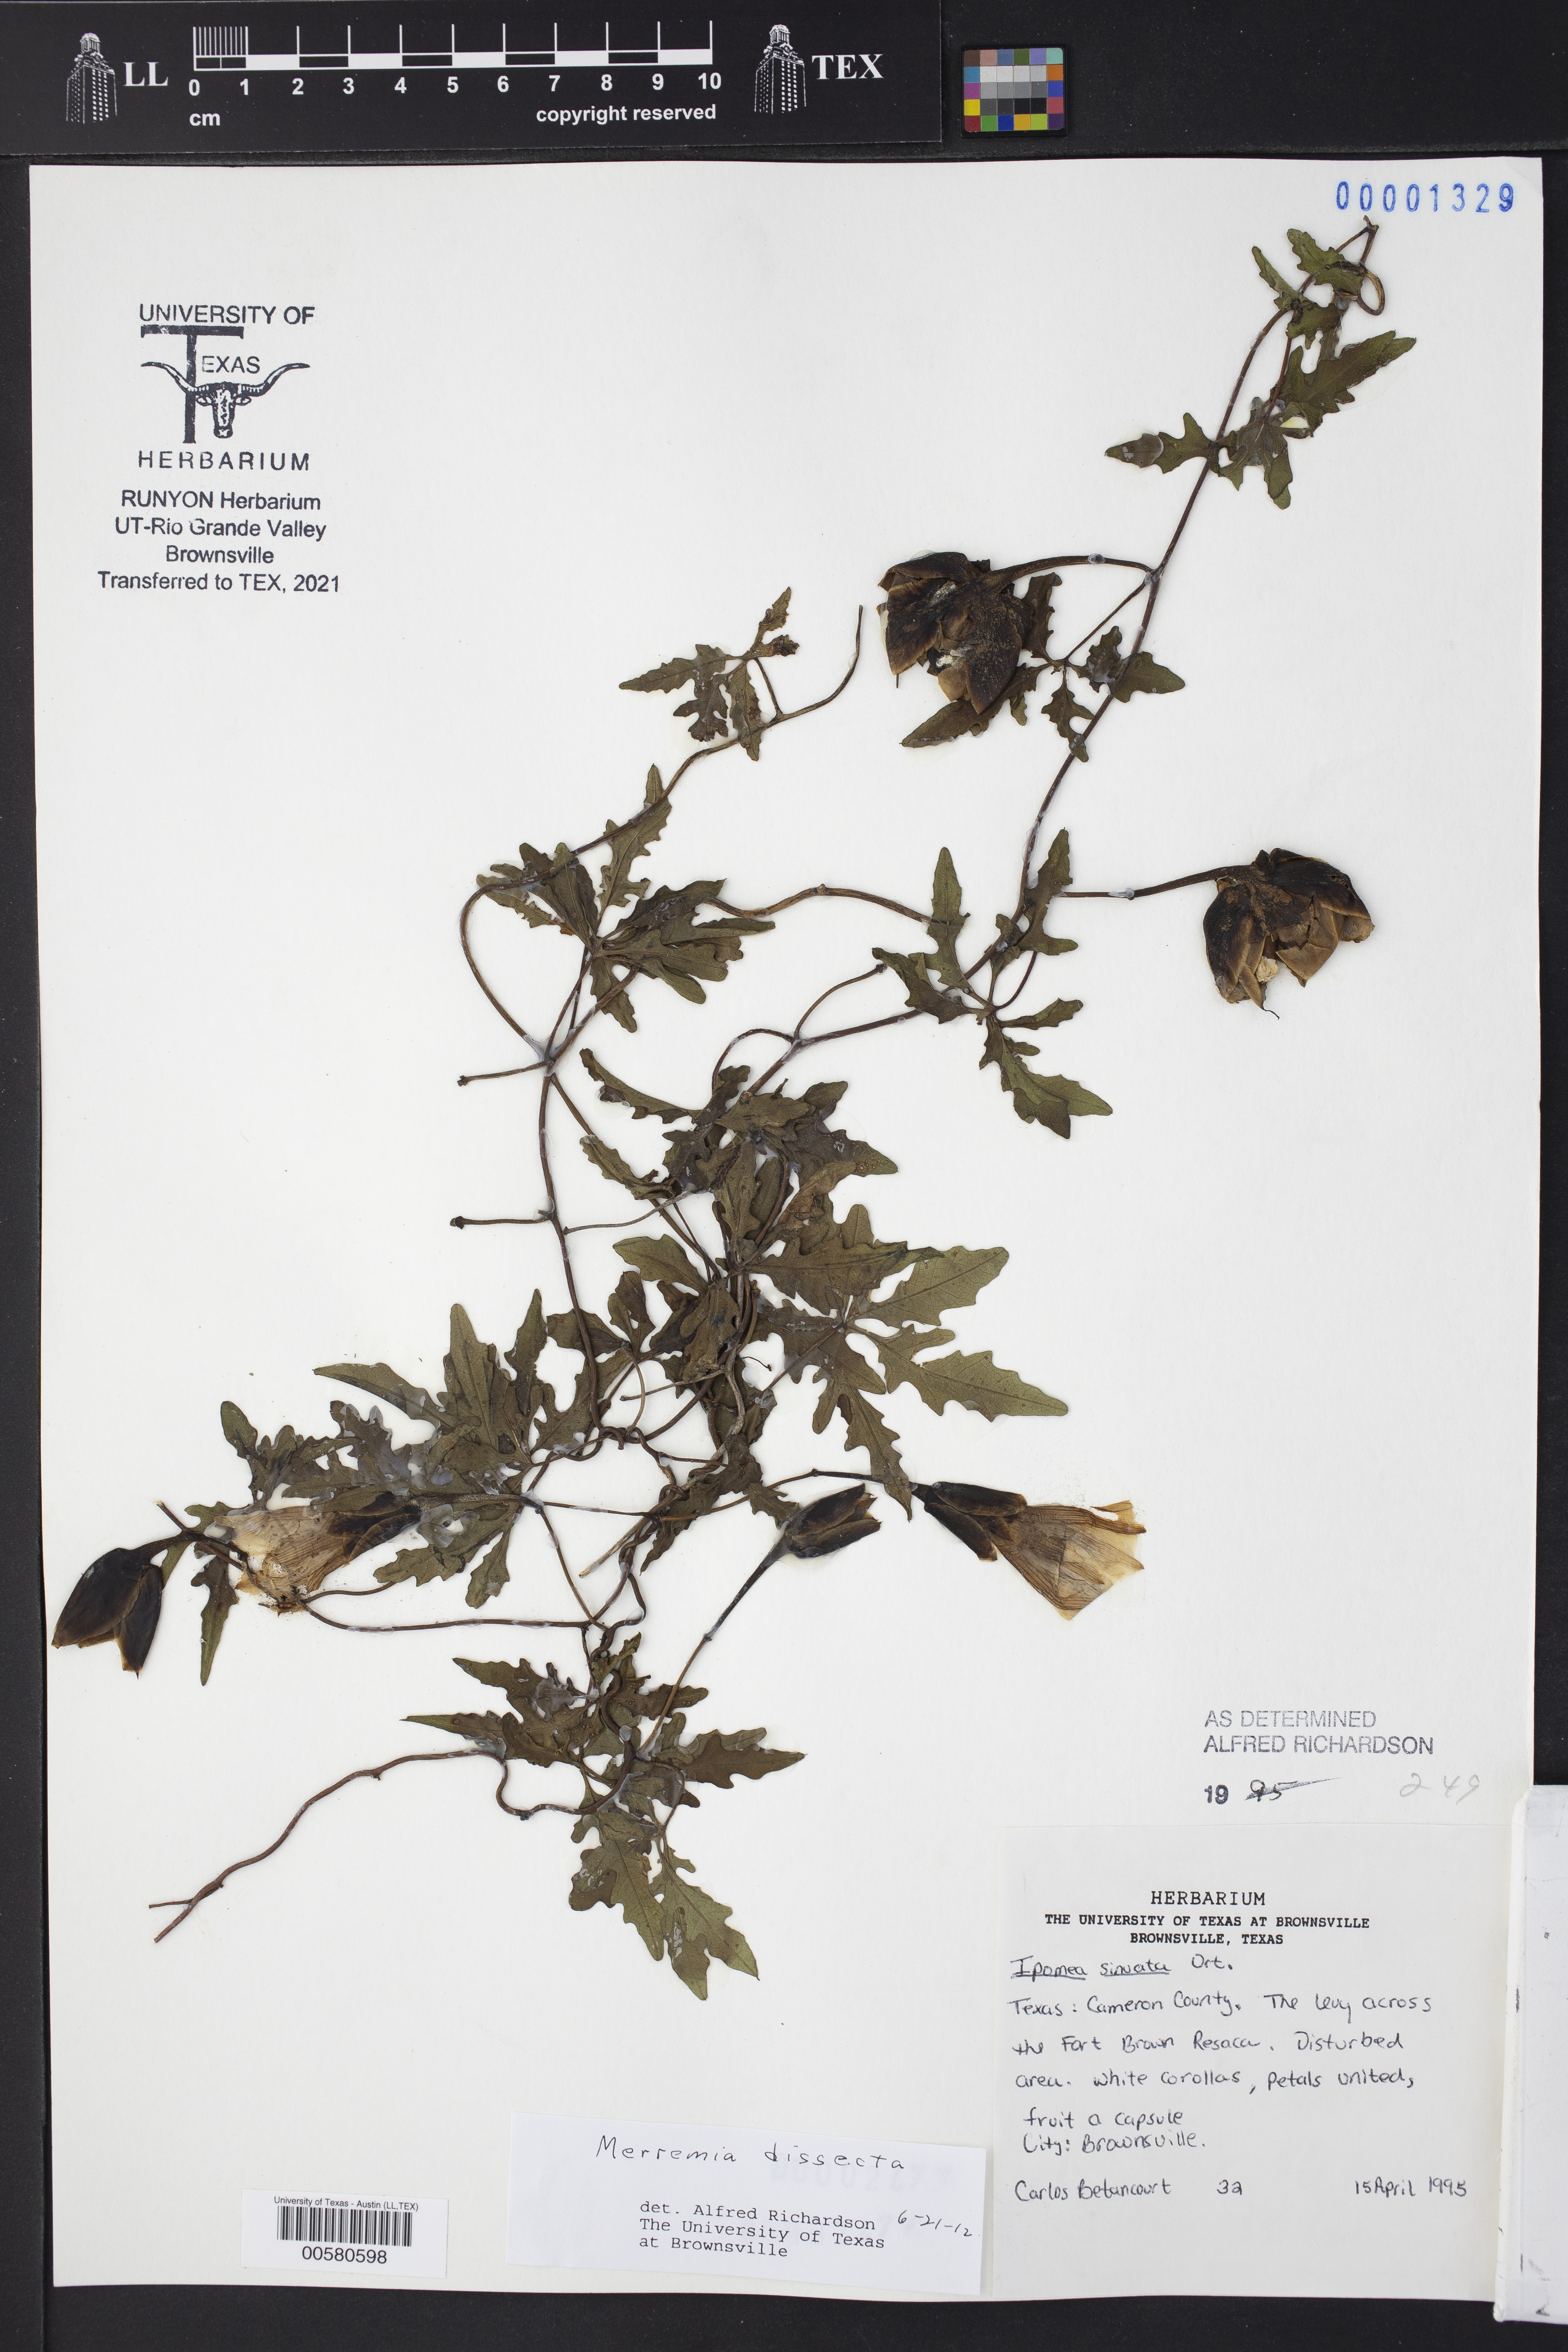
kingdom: Plantae
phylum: Tracheophyta
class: Magnoliopsida
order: Solanales
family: Convolvulaceae
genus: Distimake
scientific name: Distimake dissectus
